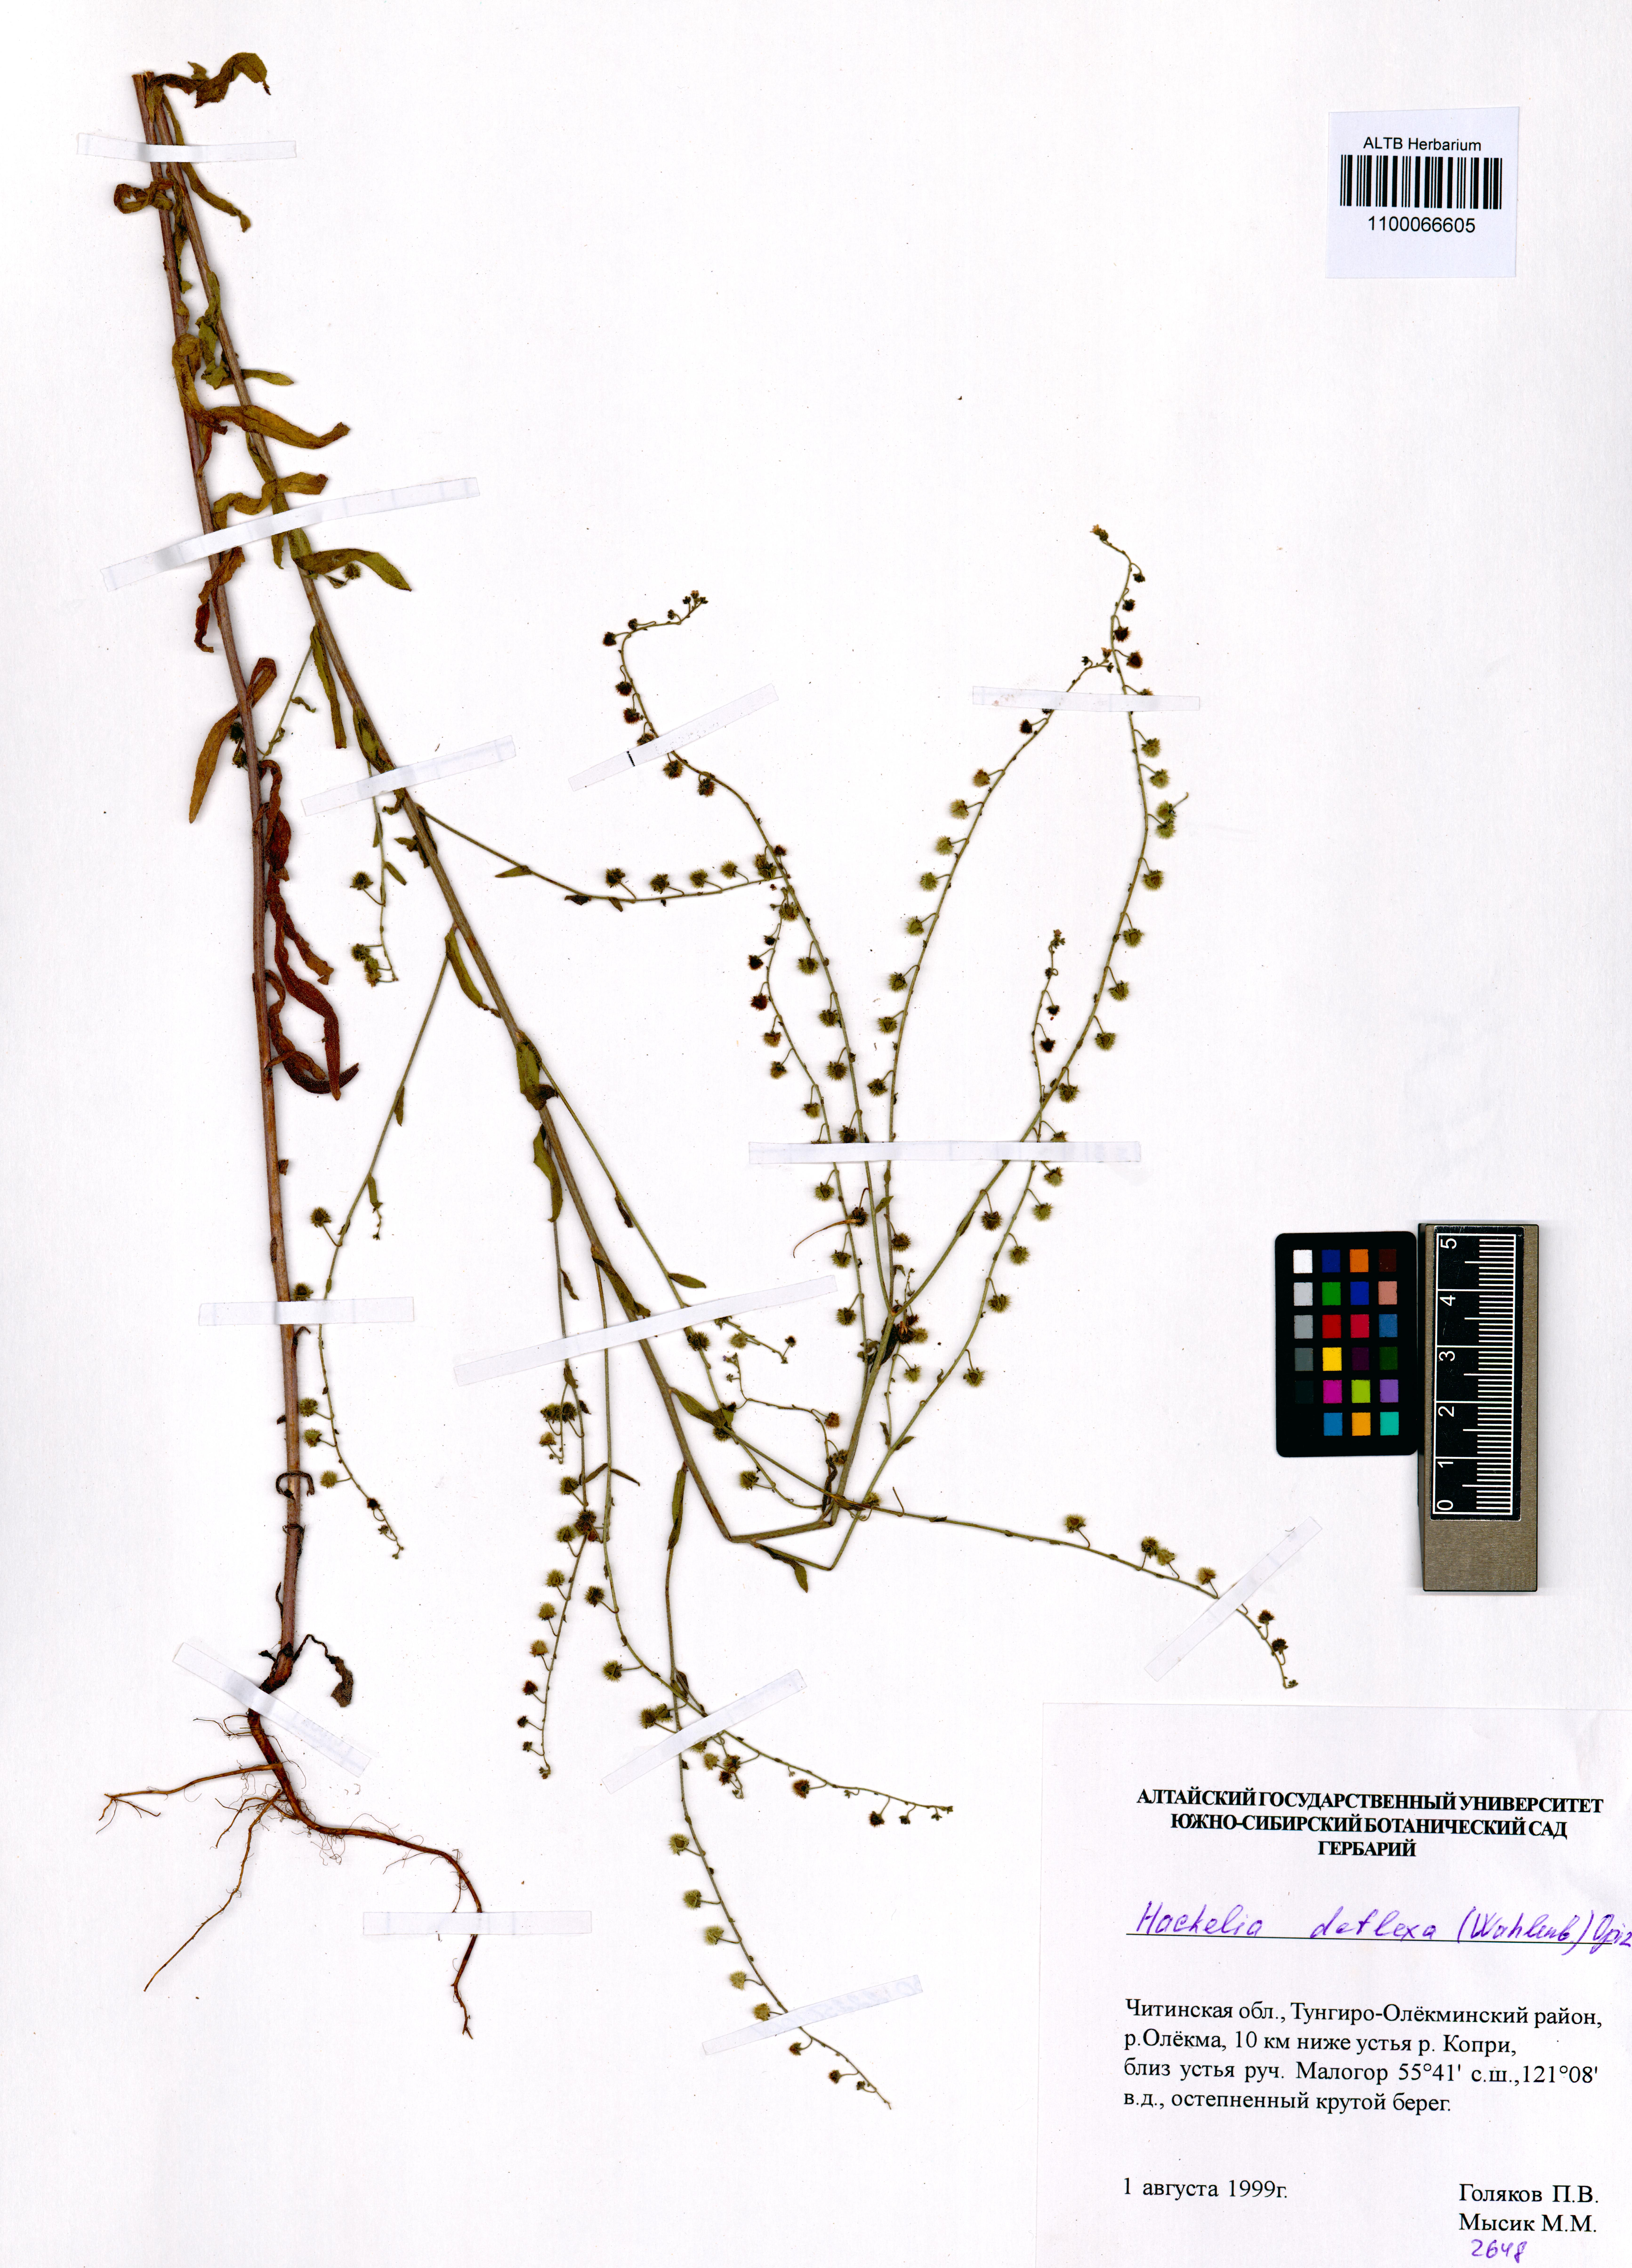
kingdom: Plantae
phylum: Tracheophyta
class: Magnoliopsida
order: Boraginales
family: Boraginaceae
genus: Hackelia
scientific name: Hackelia deflexa
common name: Nodding stickseed
